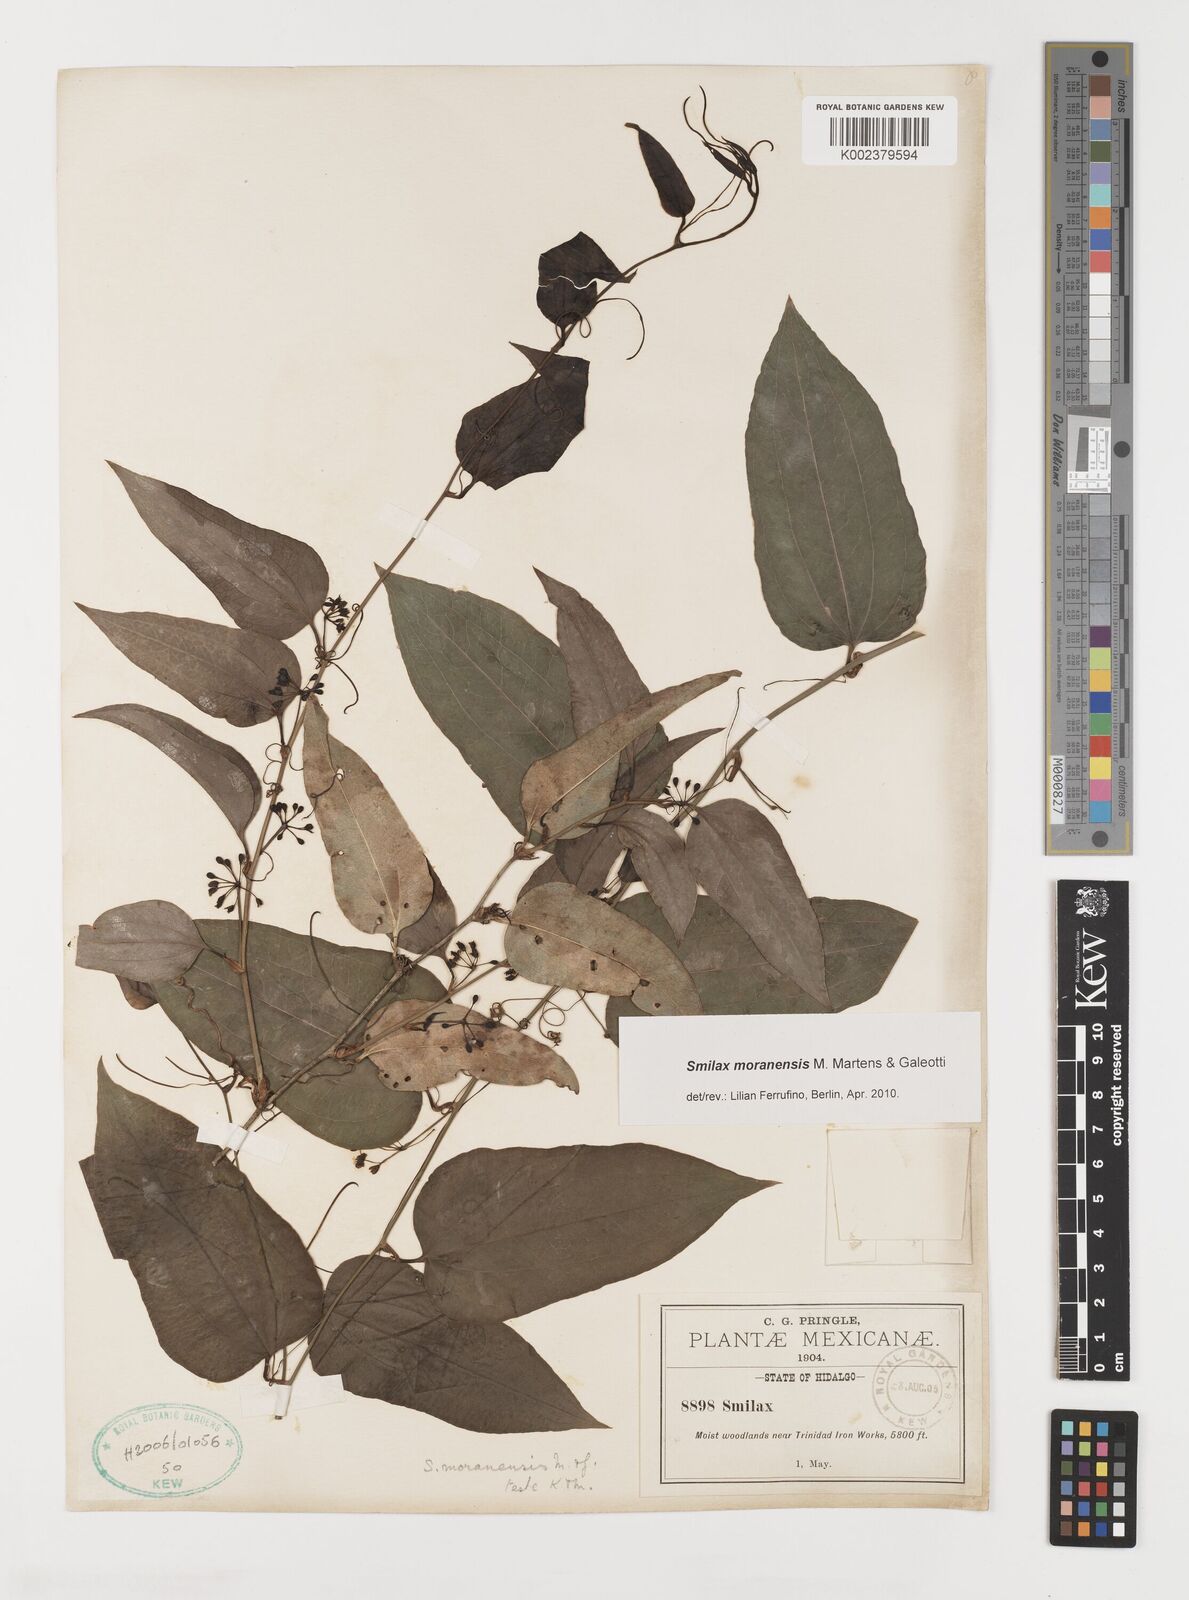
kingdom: Plantae
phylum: Tracheophyta
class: Liliopsida
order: Liliales
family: Smilacaceae
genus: Smilax
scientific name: Smilax moranensis
